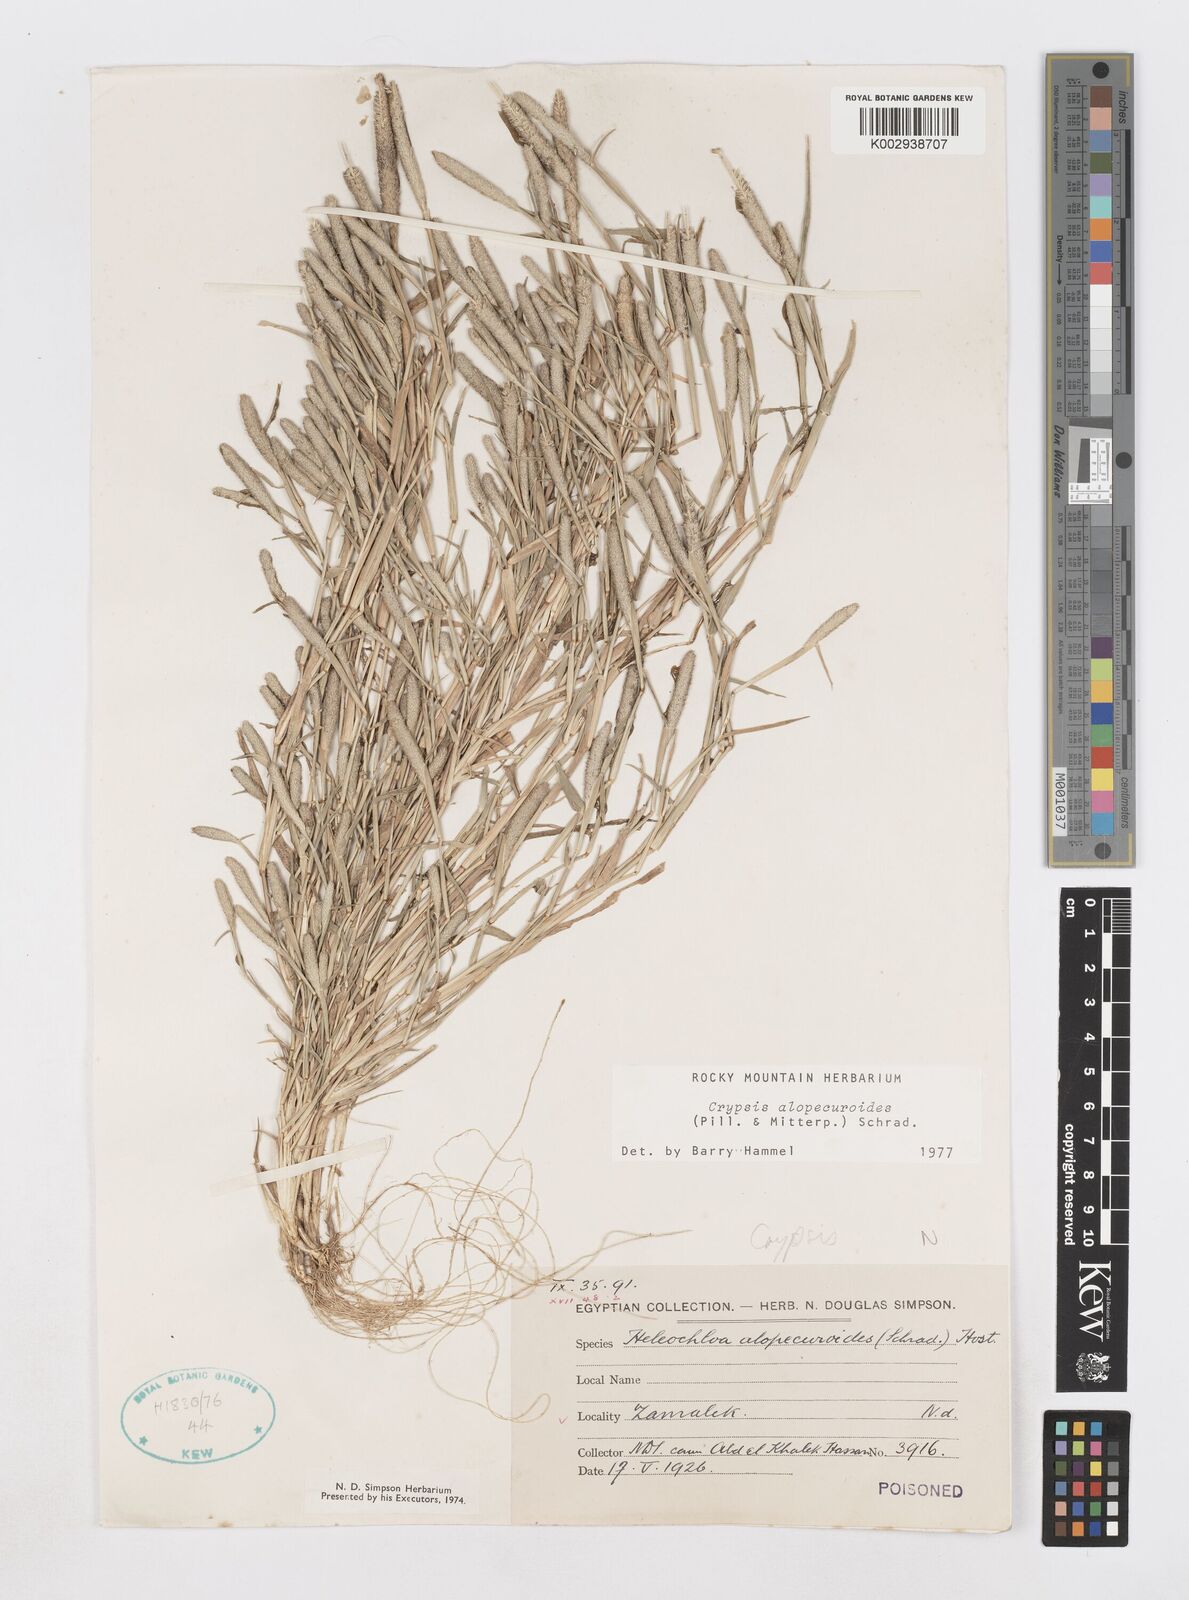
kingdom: Plantae
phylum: Tracheophyta
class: Liliopsida
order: Poales
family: Poaceae
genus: Sporobolus
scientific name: Sporobolus alopecuroides
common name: Foxtail pricklegrass
